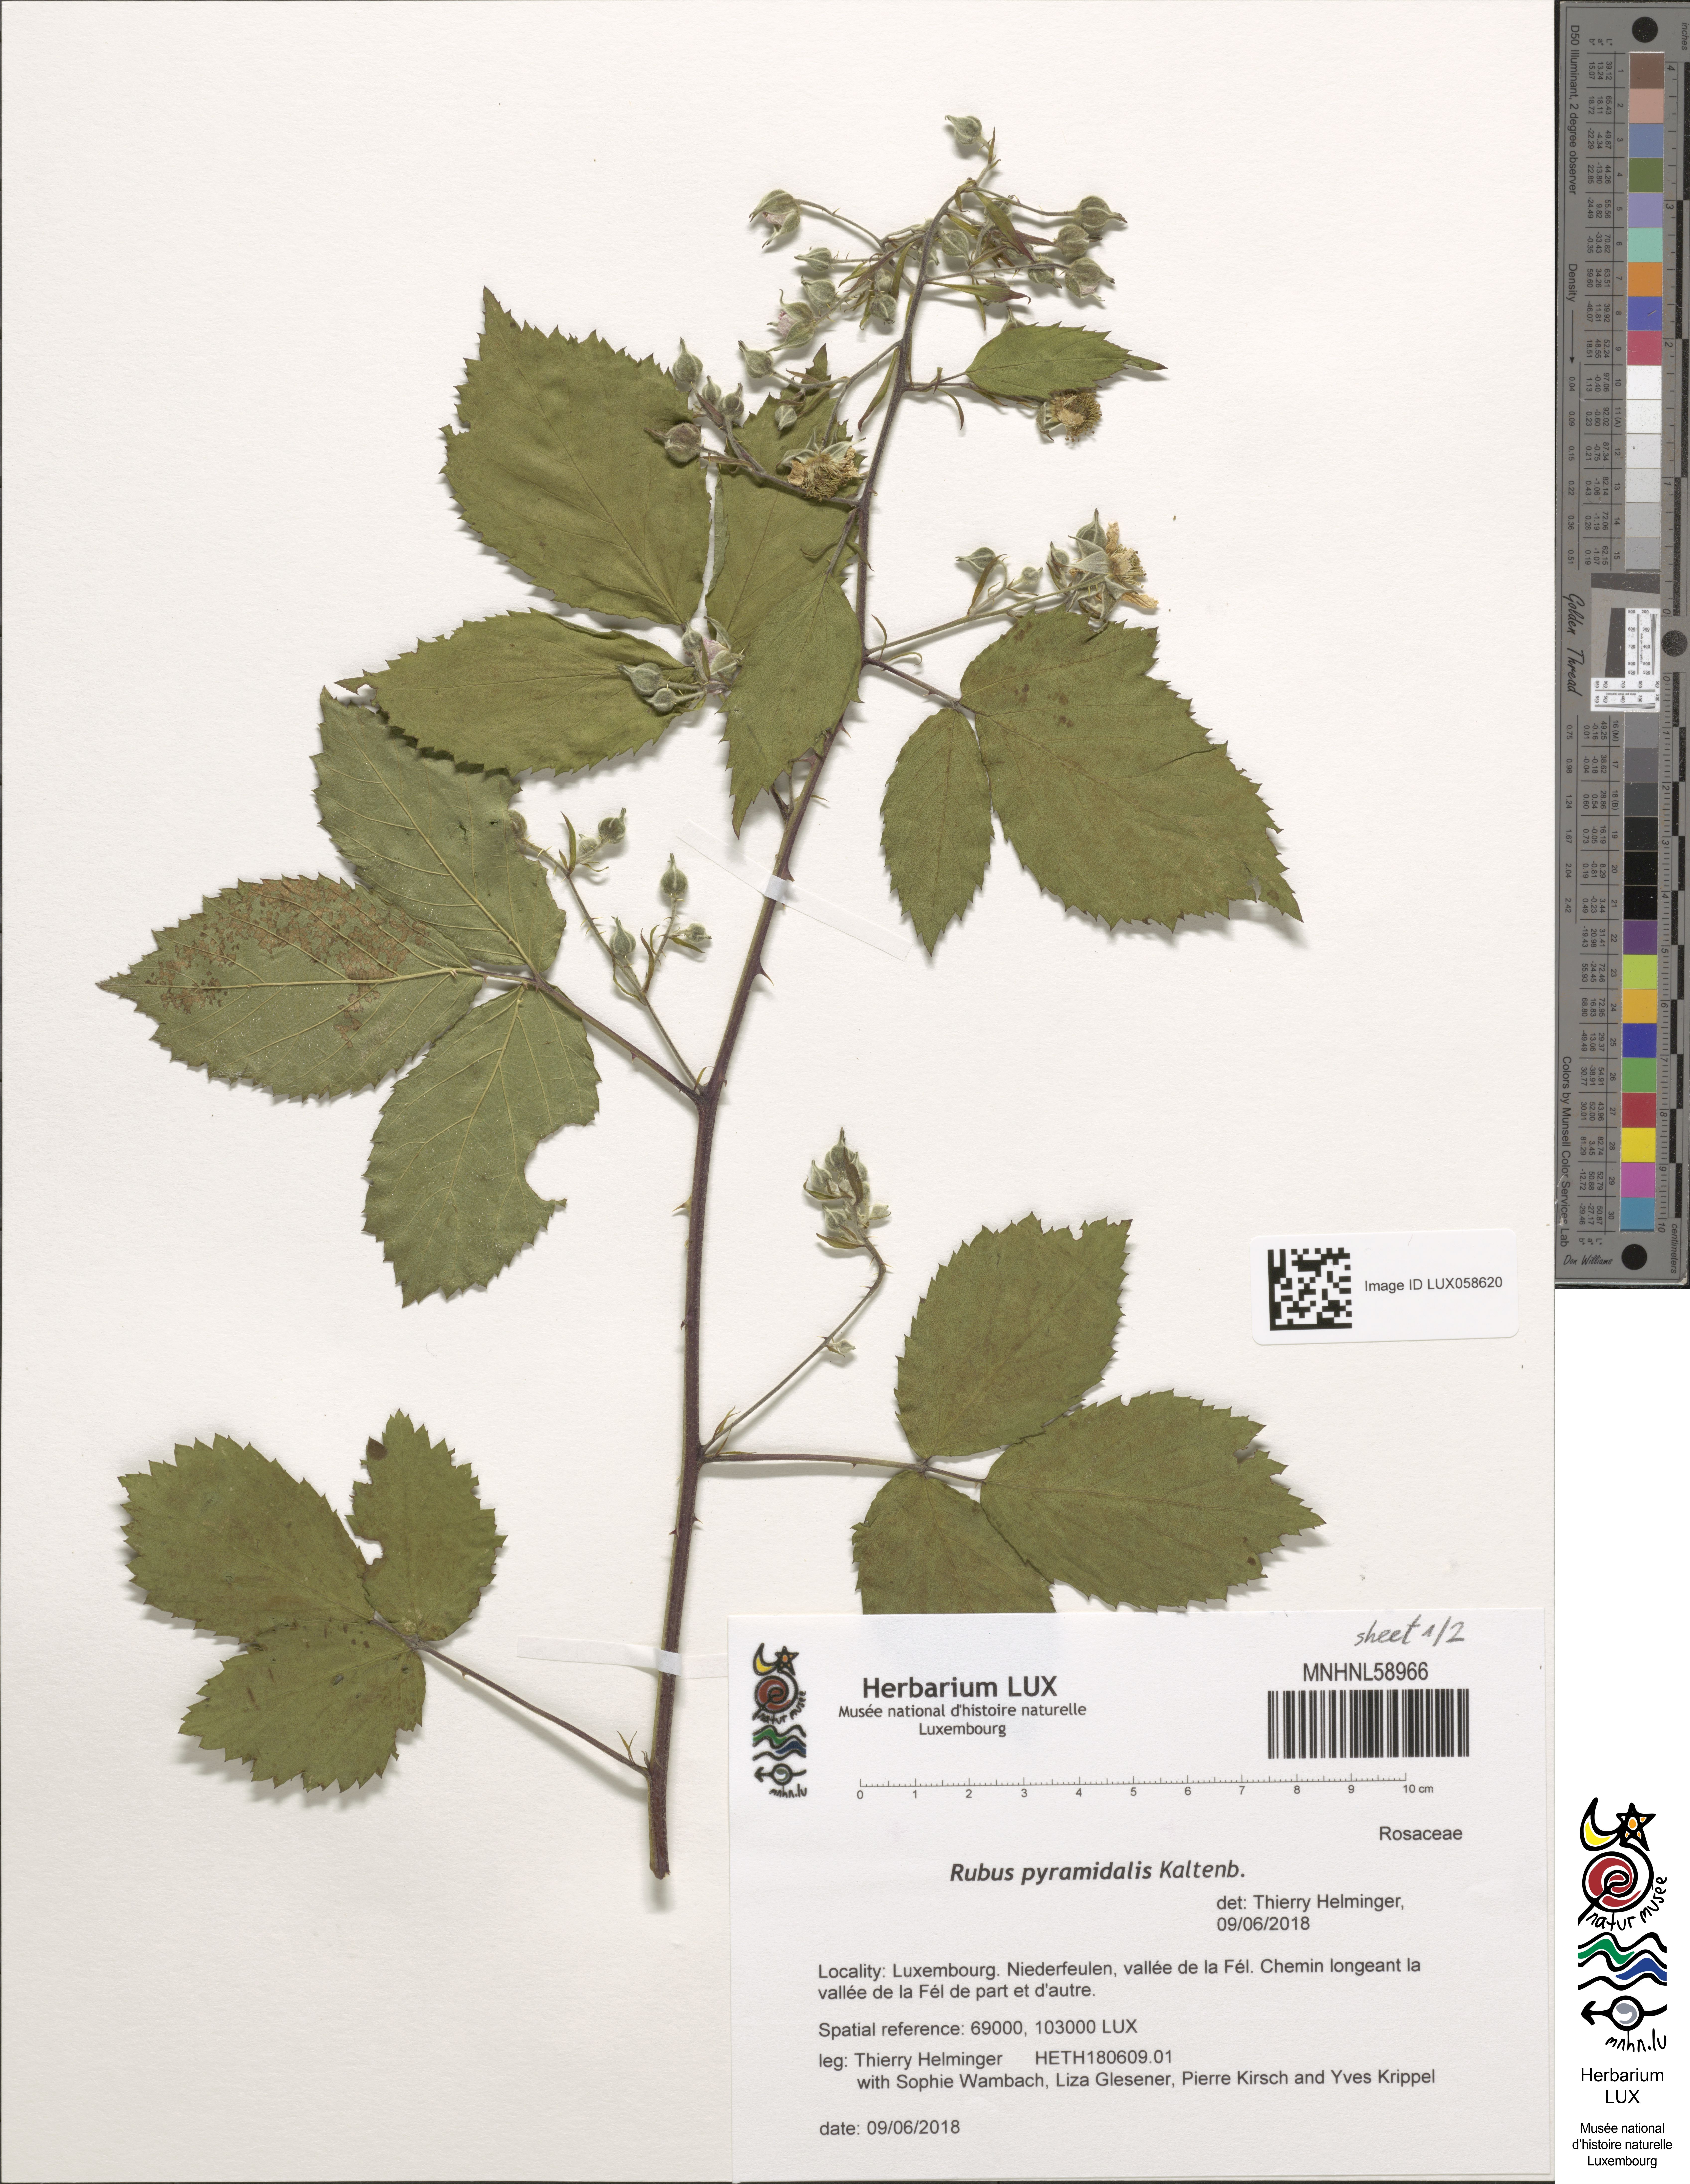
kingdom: Plantae
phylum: Tracheophyta
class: Magnoliopsida
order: Rosales
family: Rosaceae
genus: Rubus
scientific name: Rubus umbrosus
